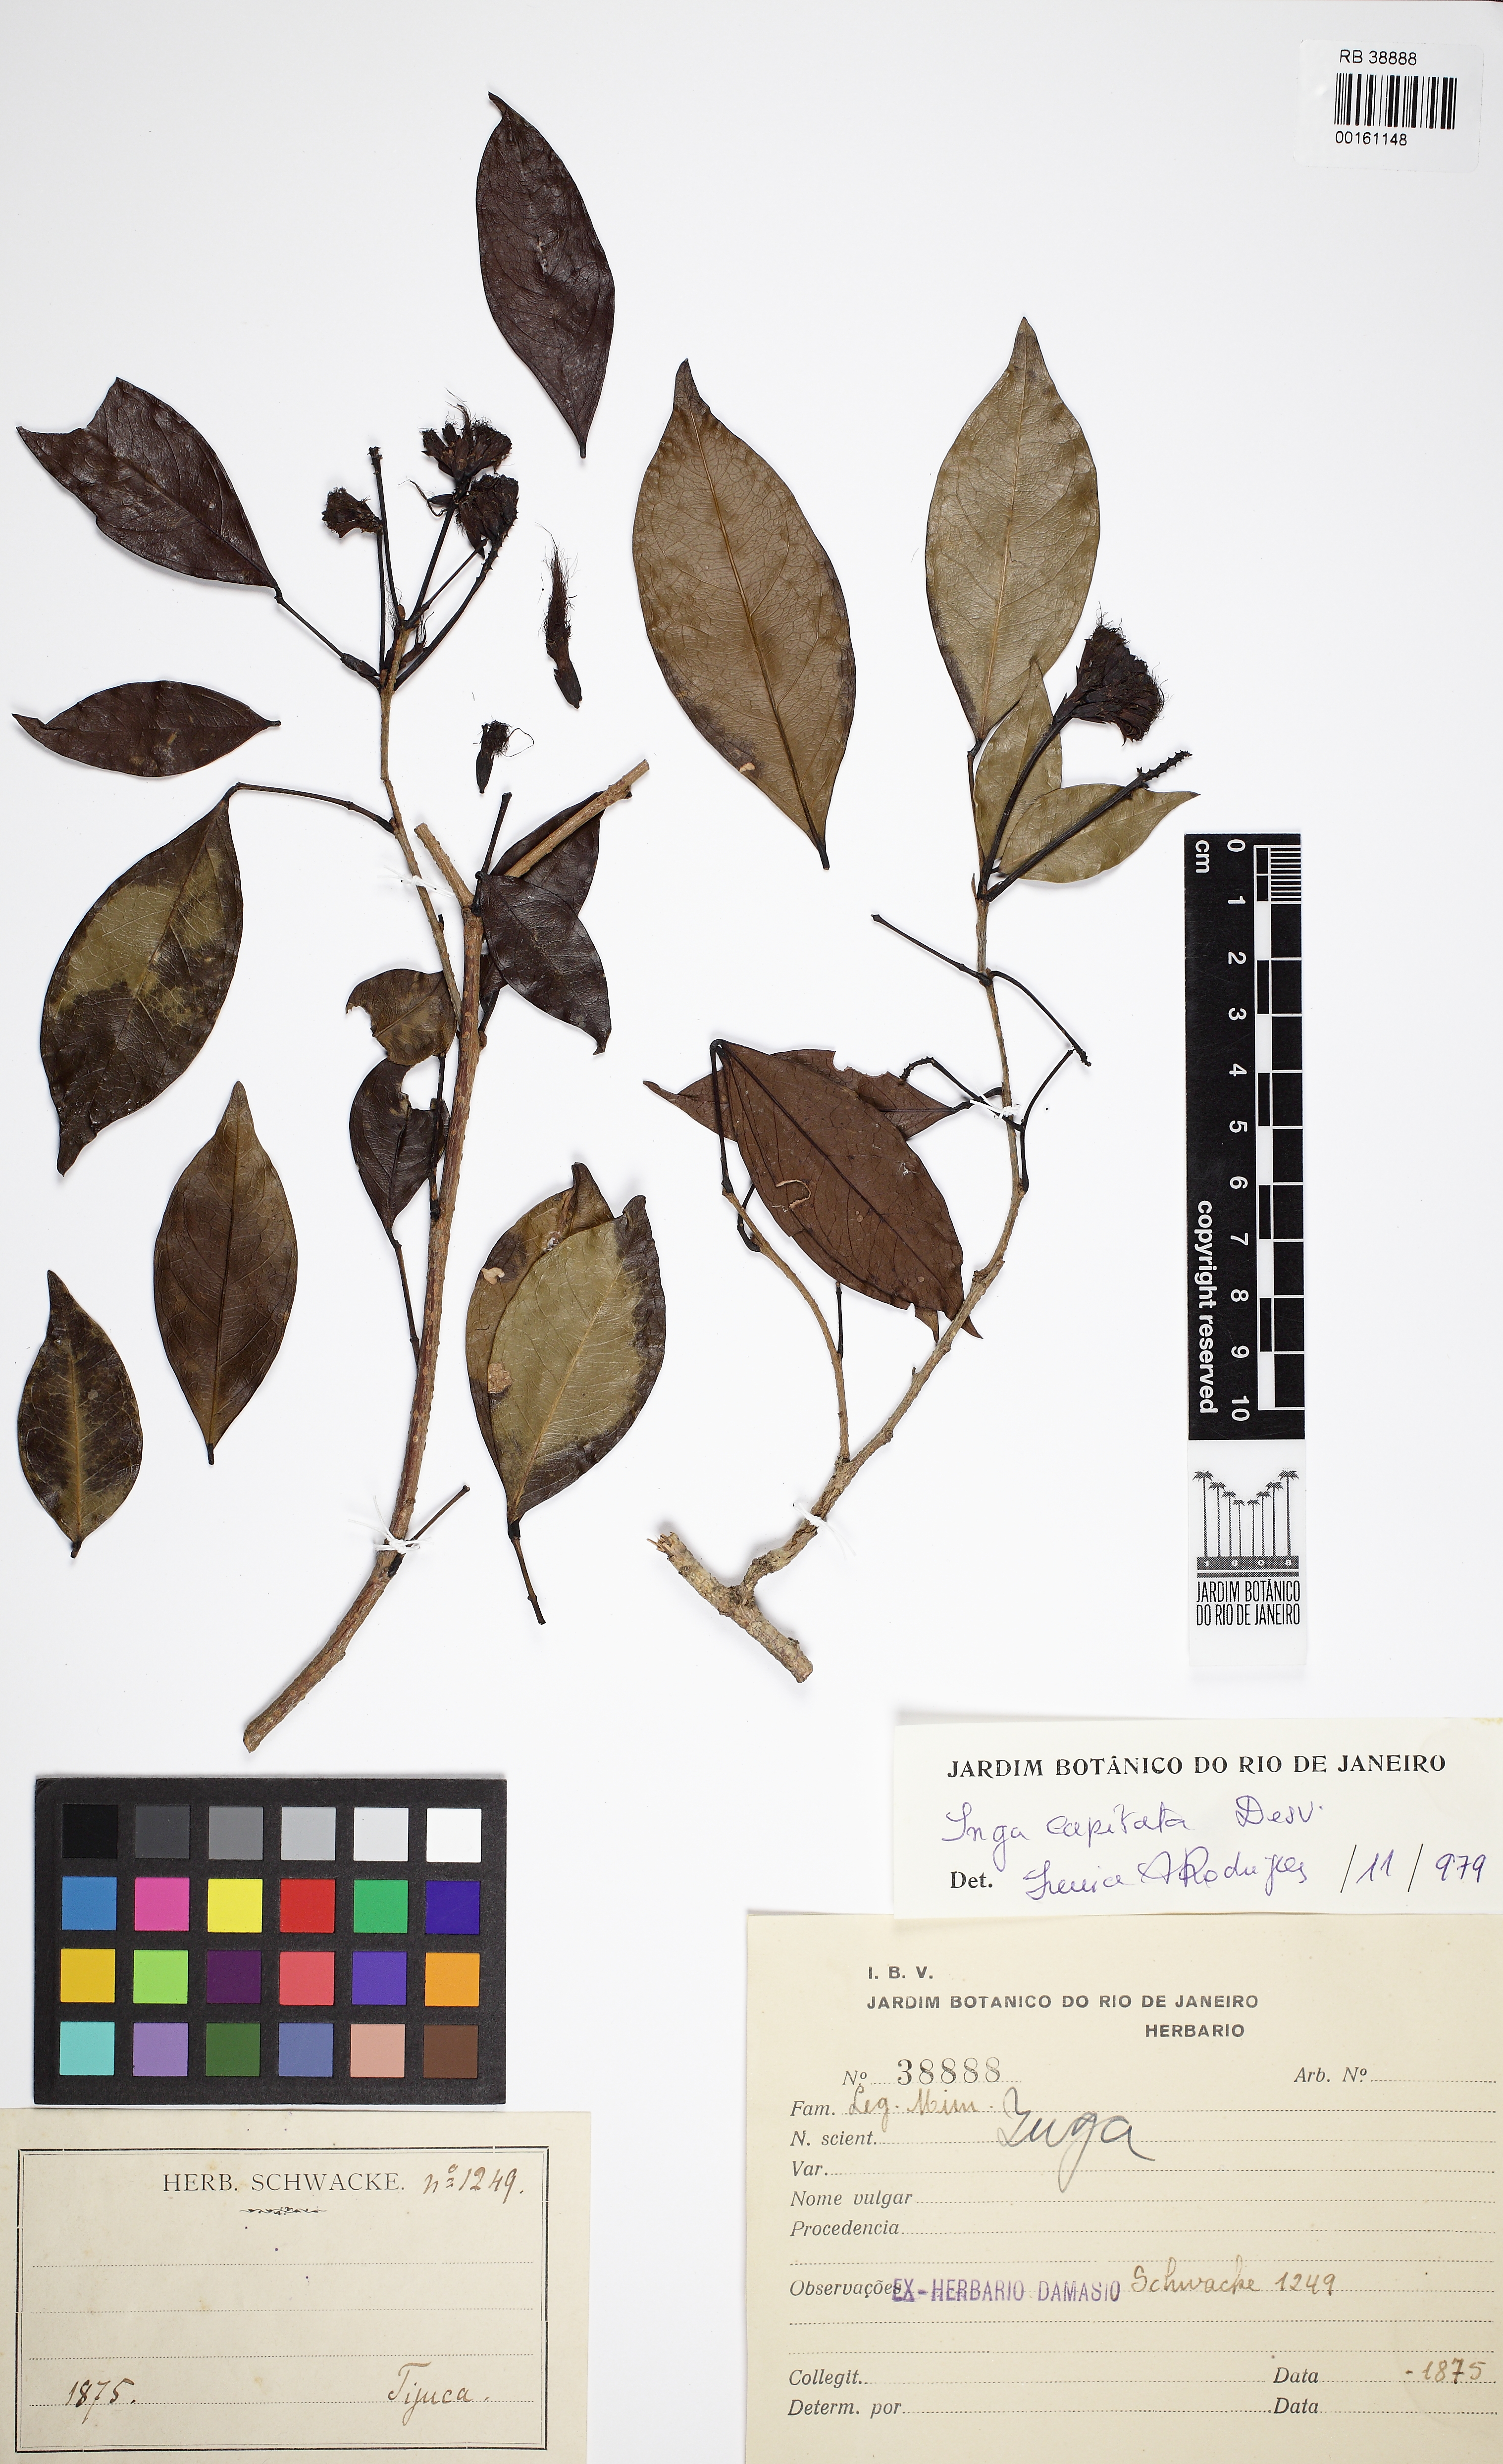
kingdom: Plantae
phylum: Tracheophyta
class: Magnoliopsida
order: Fabales
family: Fabaceae
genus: Inga
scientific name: Inga capitata
